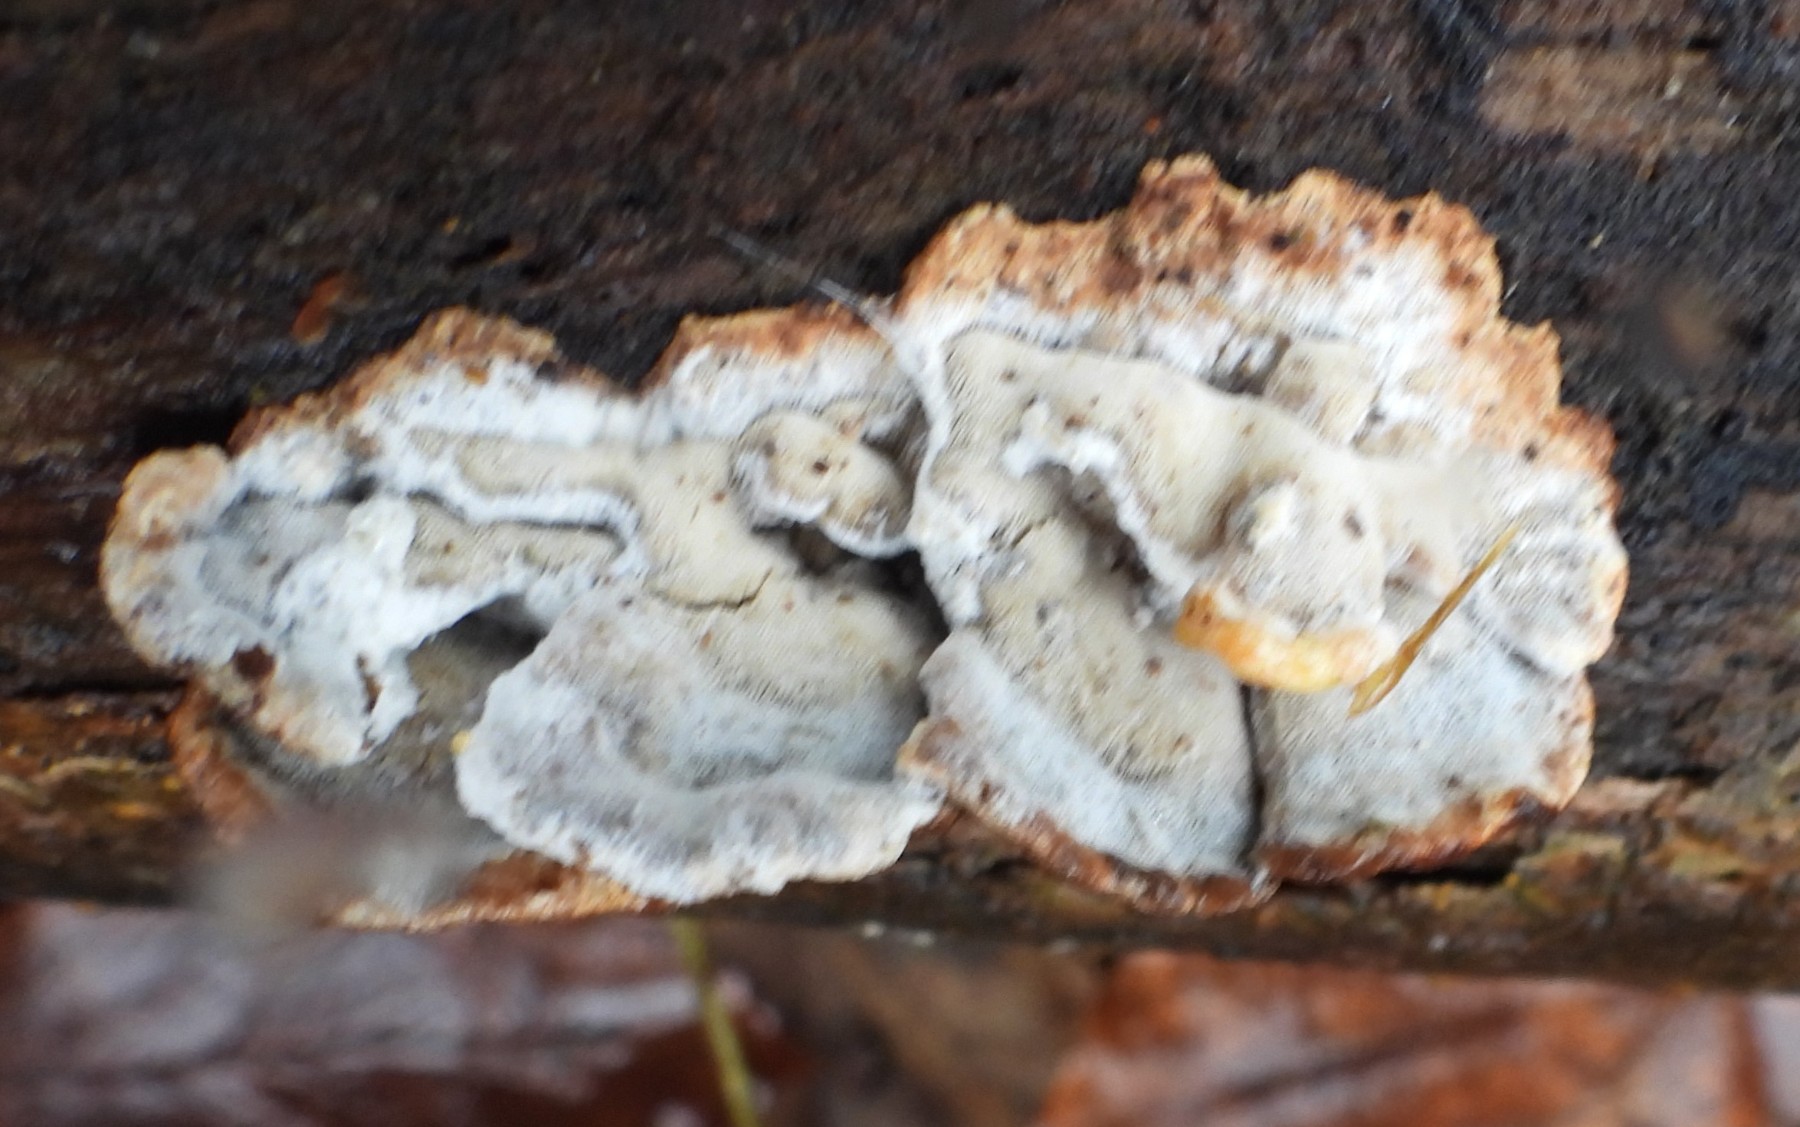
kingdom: Fungi
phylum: Basidiomycota
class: Agaricomycetes
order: Polyporales
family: Incrustoporiaceae
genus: Skeletocutis
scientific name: Skeletocutis nemoralis
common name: stor krystalporesvamp
